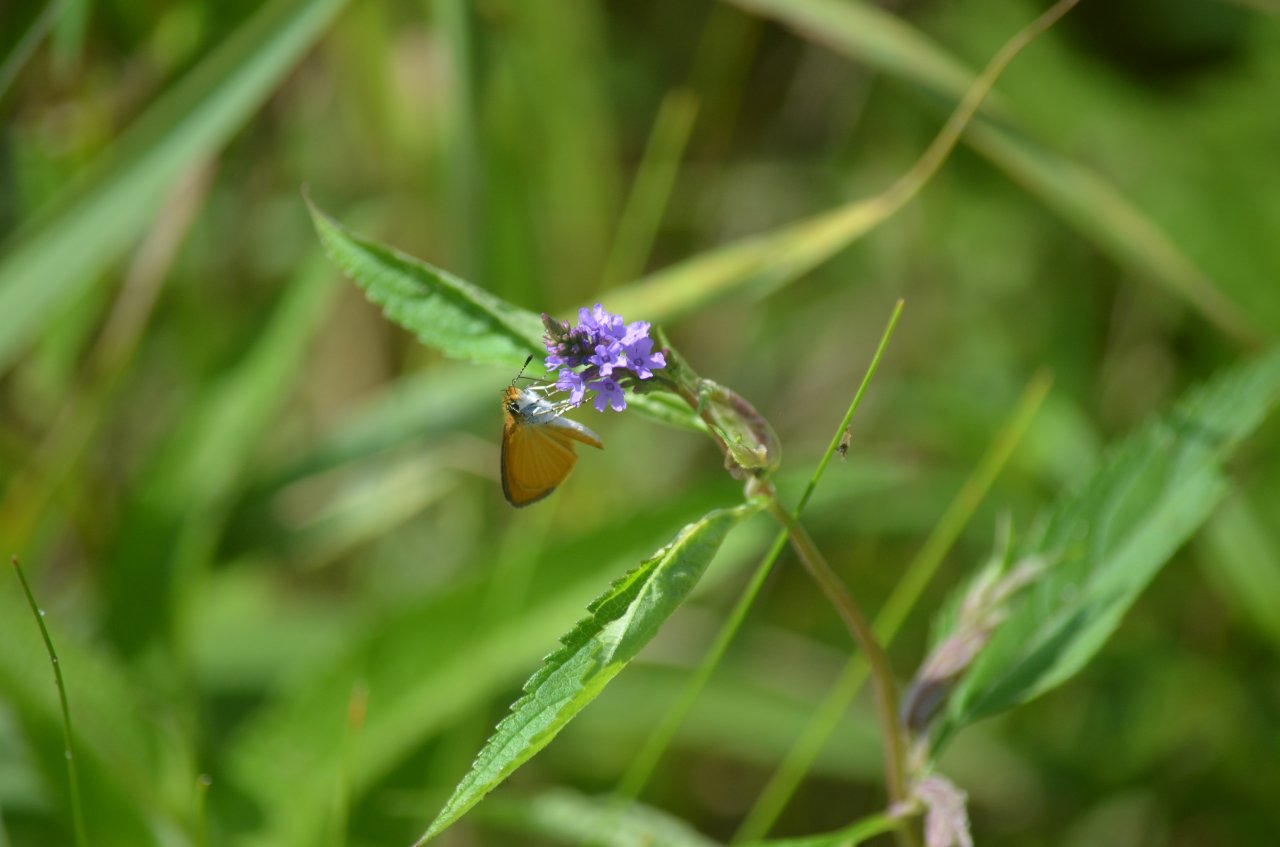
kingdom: Animalia
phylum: Arthropoda
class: Insecta
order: Lepidoptera
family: Hesperiidae
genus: Ancyloxypha
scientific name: Ancyloxypha numitor
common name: Least Skipper
